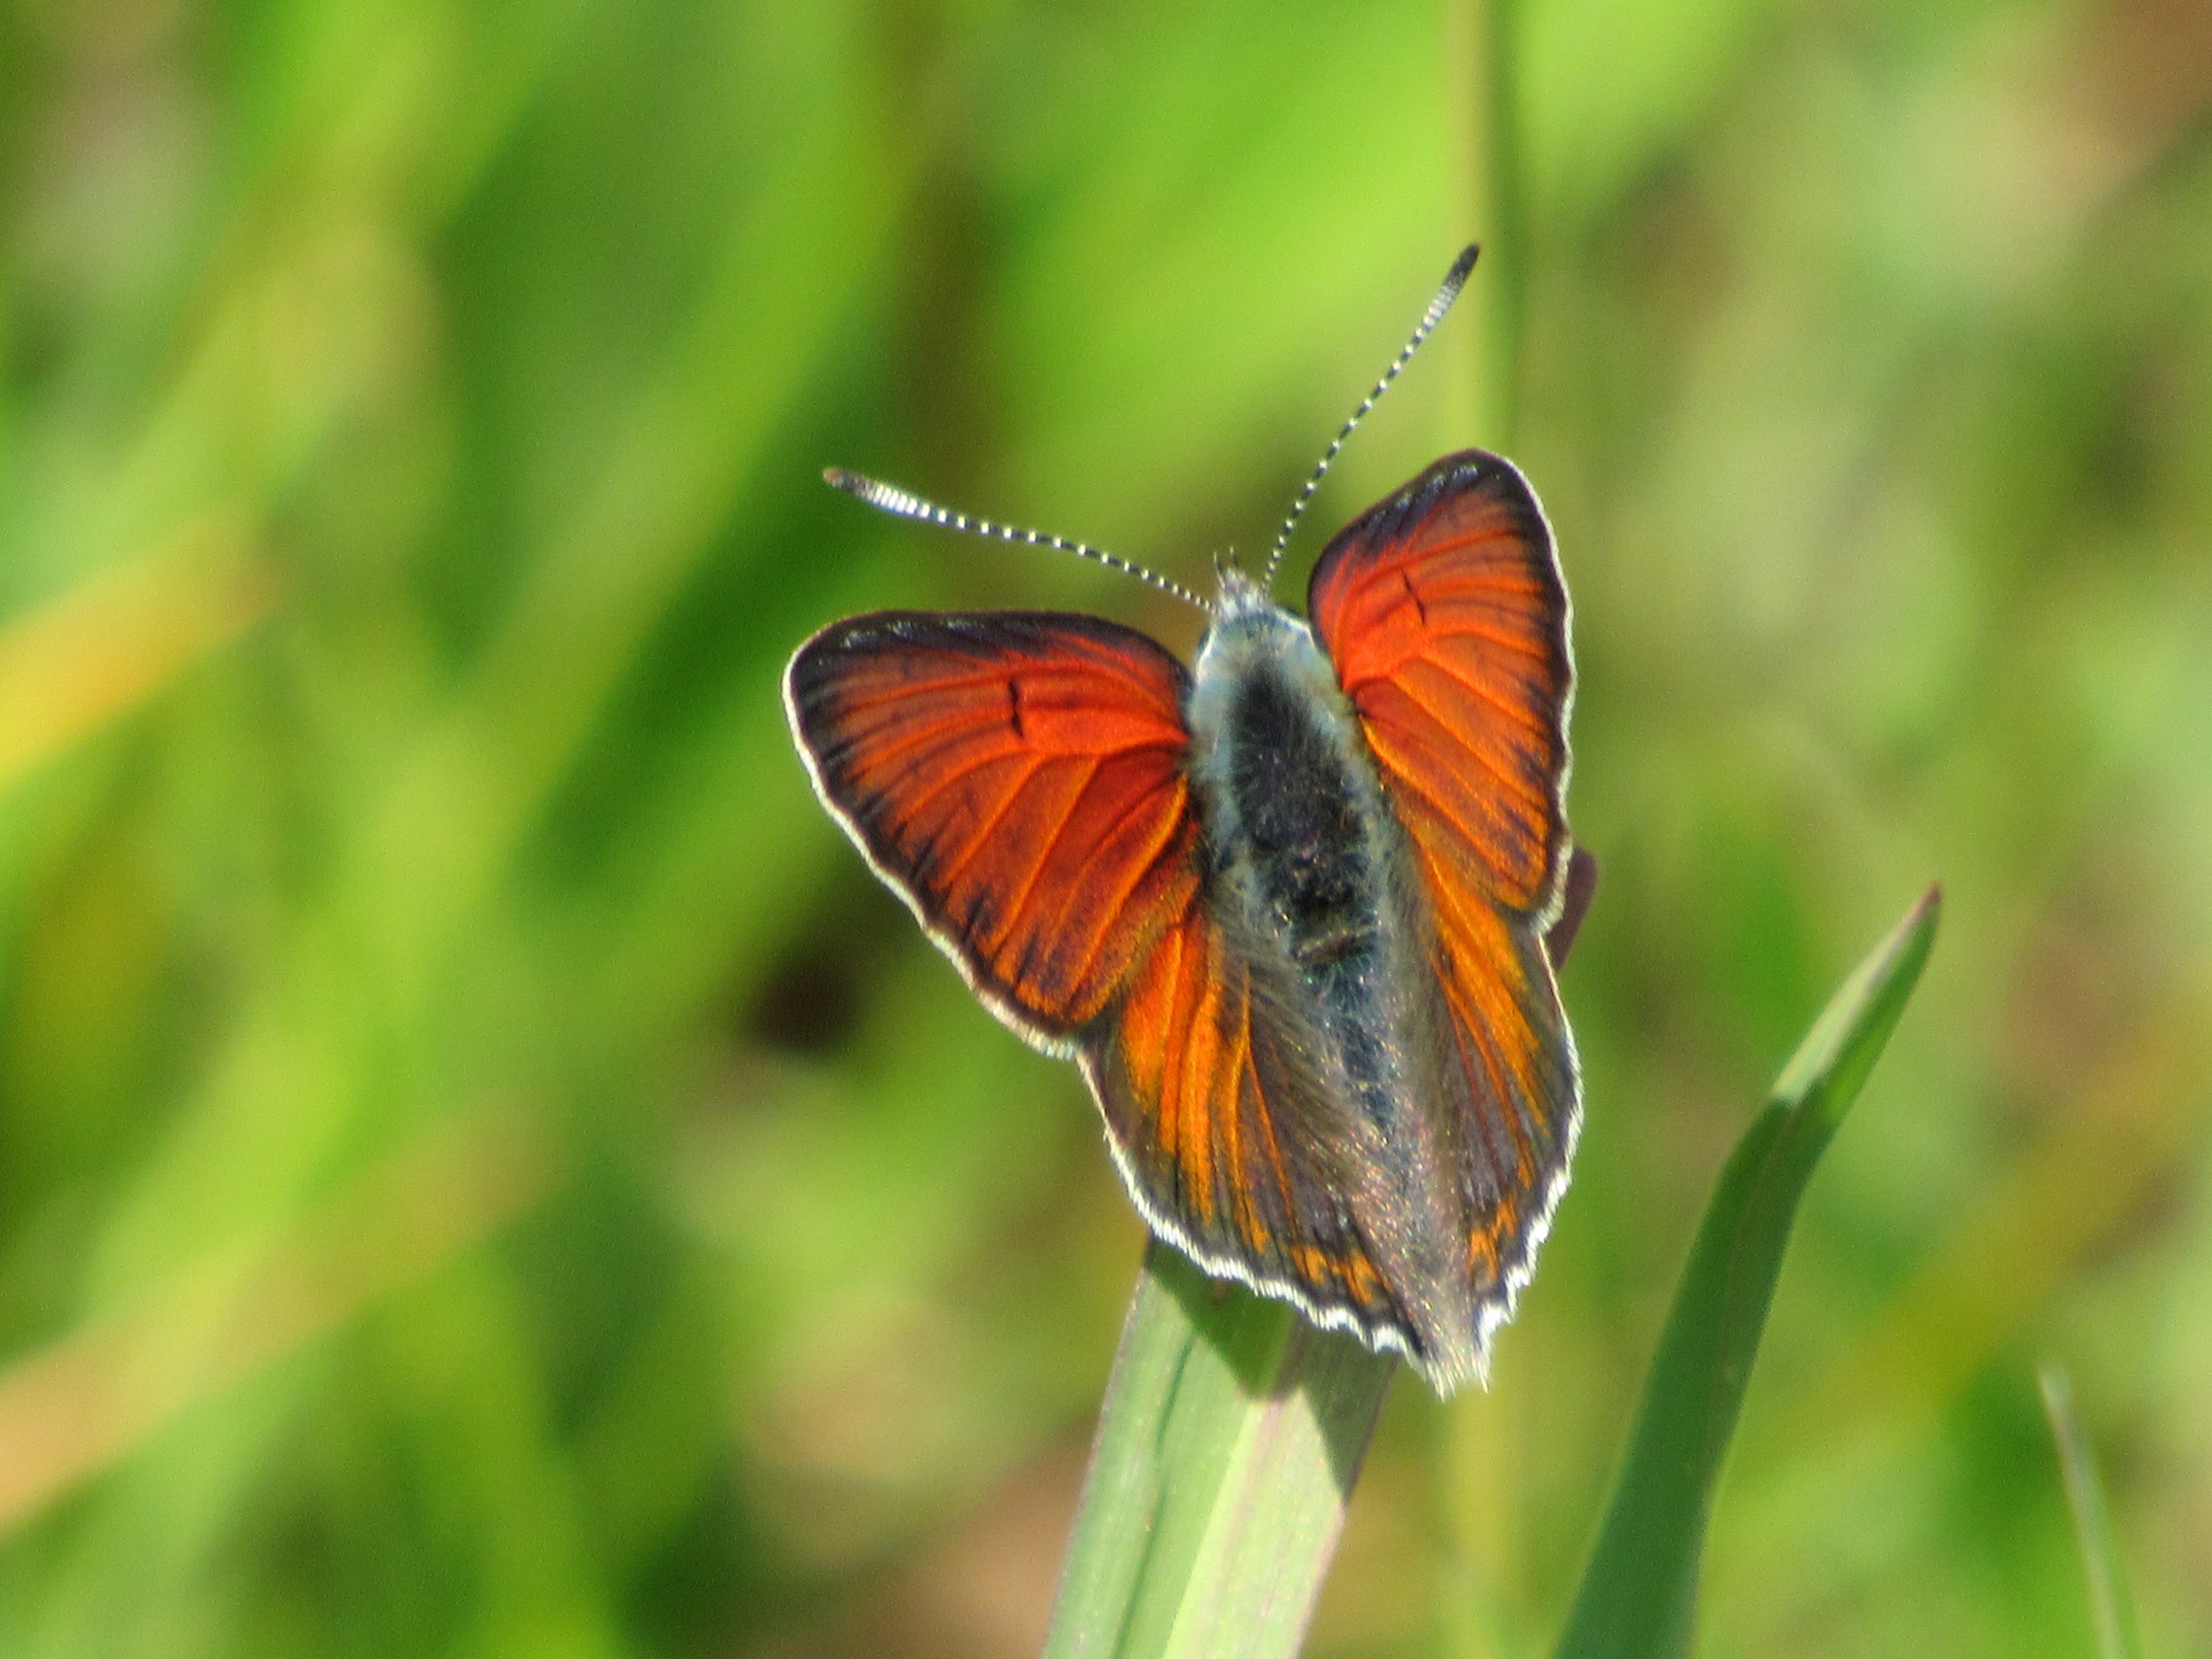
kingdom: Animalia
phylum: Arthropoda
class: Insecta
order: Lepidoptera
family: Lycaenidae
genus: Palaeochrysophanus
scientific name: Palaeochrysophanus hippothoe
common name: Violetrandet ildfugl
